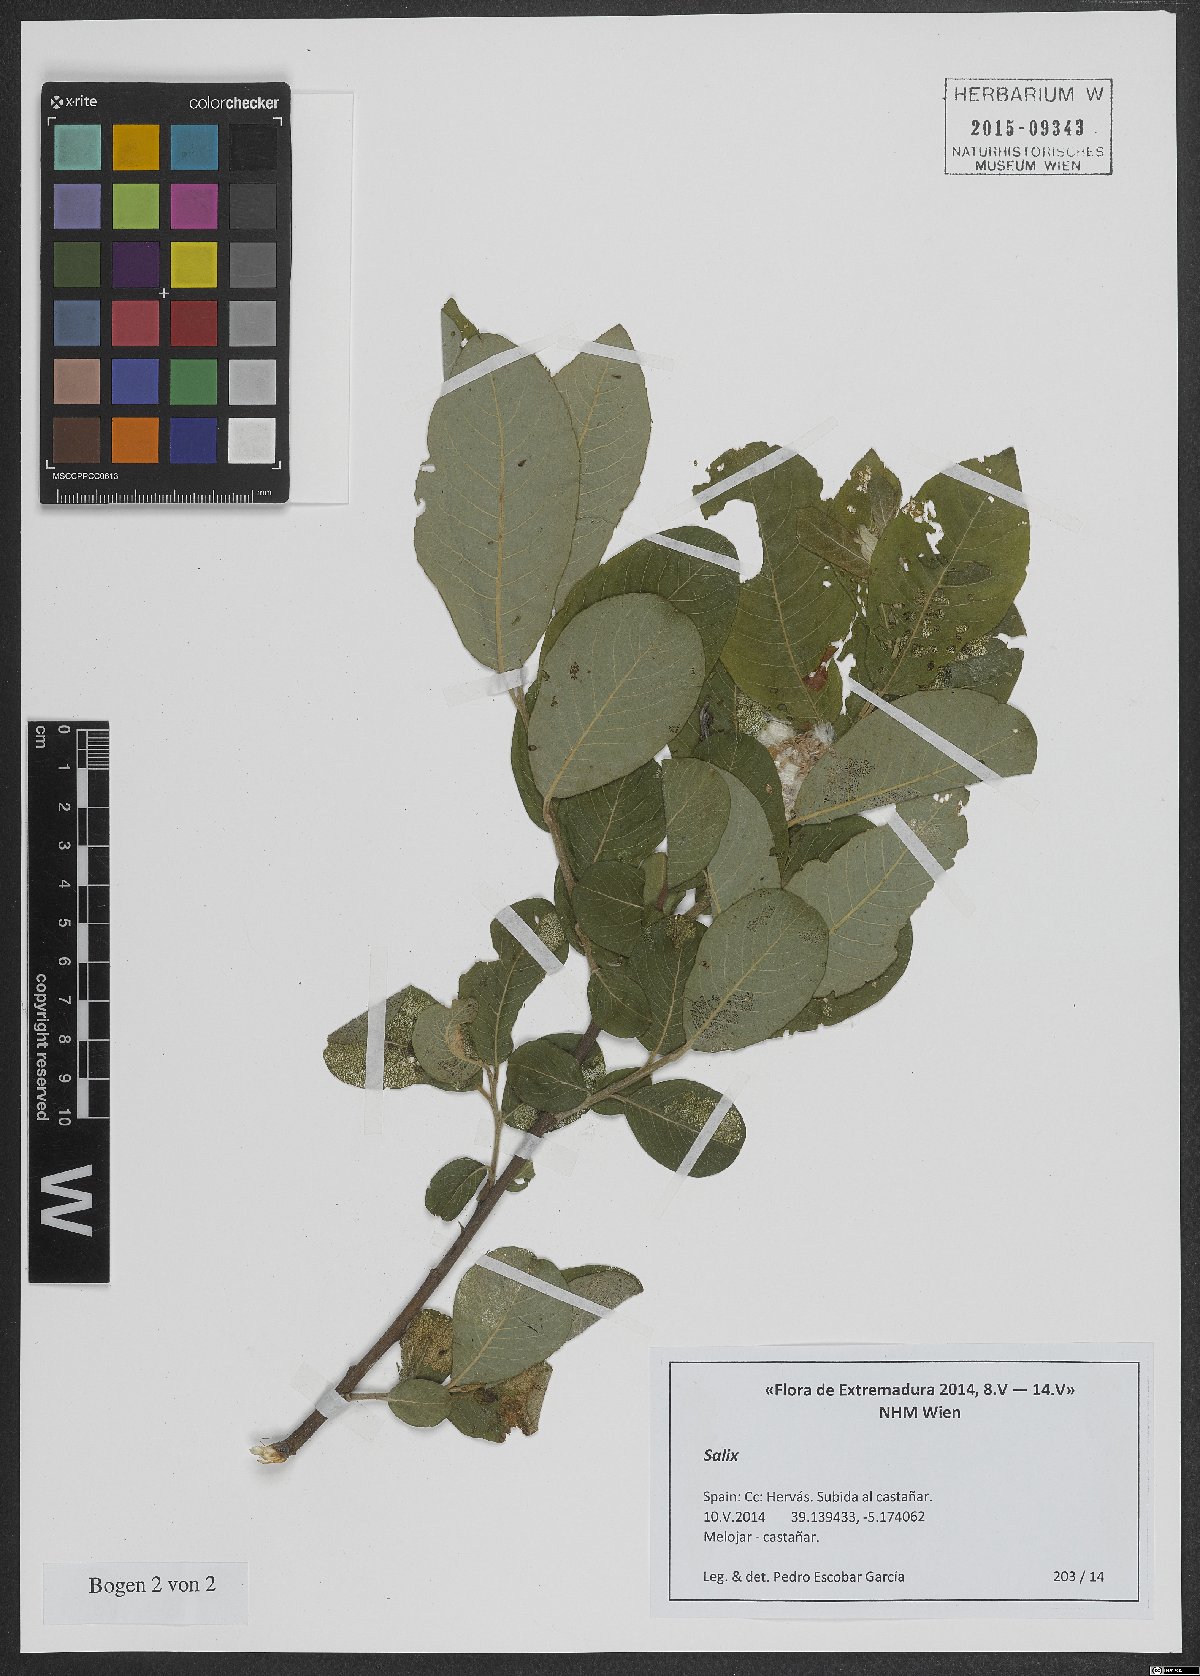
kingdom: Plantae
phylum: Tracheophyta
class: Magnoliopsida
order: Malpighiales
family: Salicaceae
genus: Salix
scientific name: Salix
